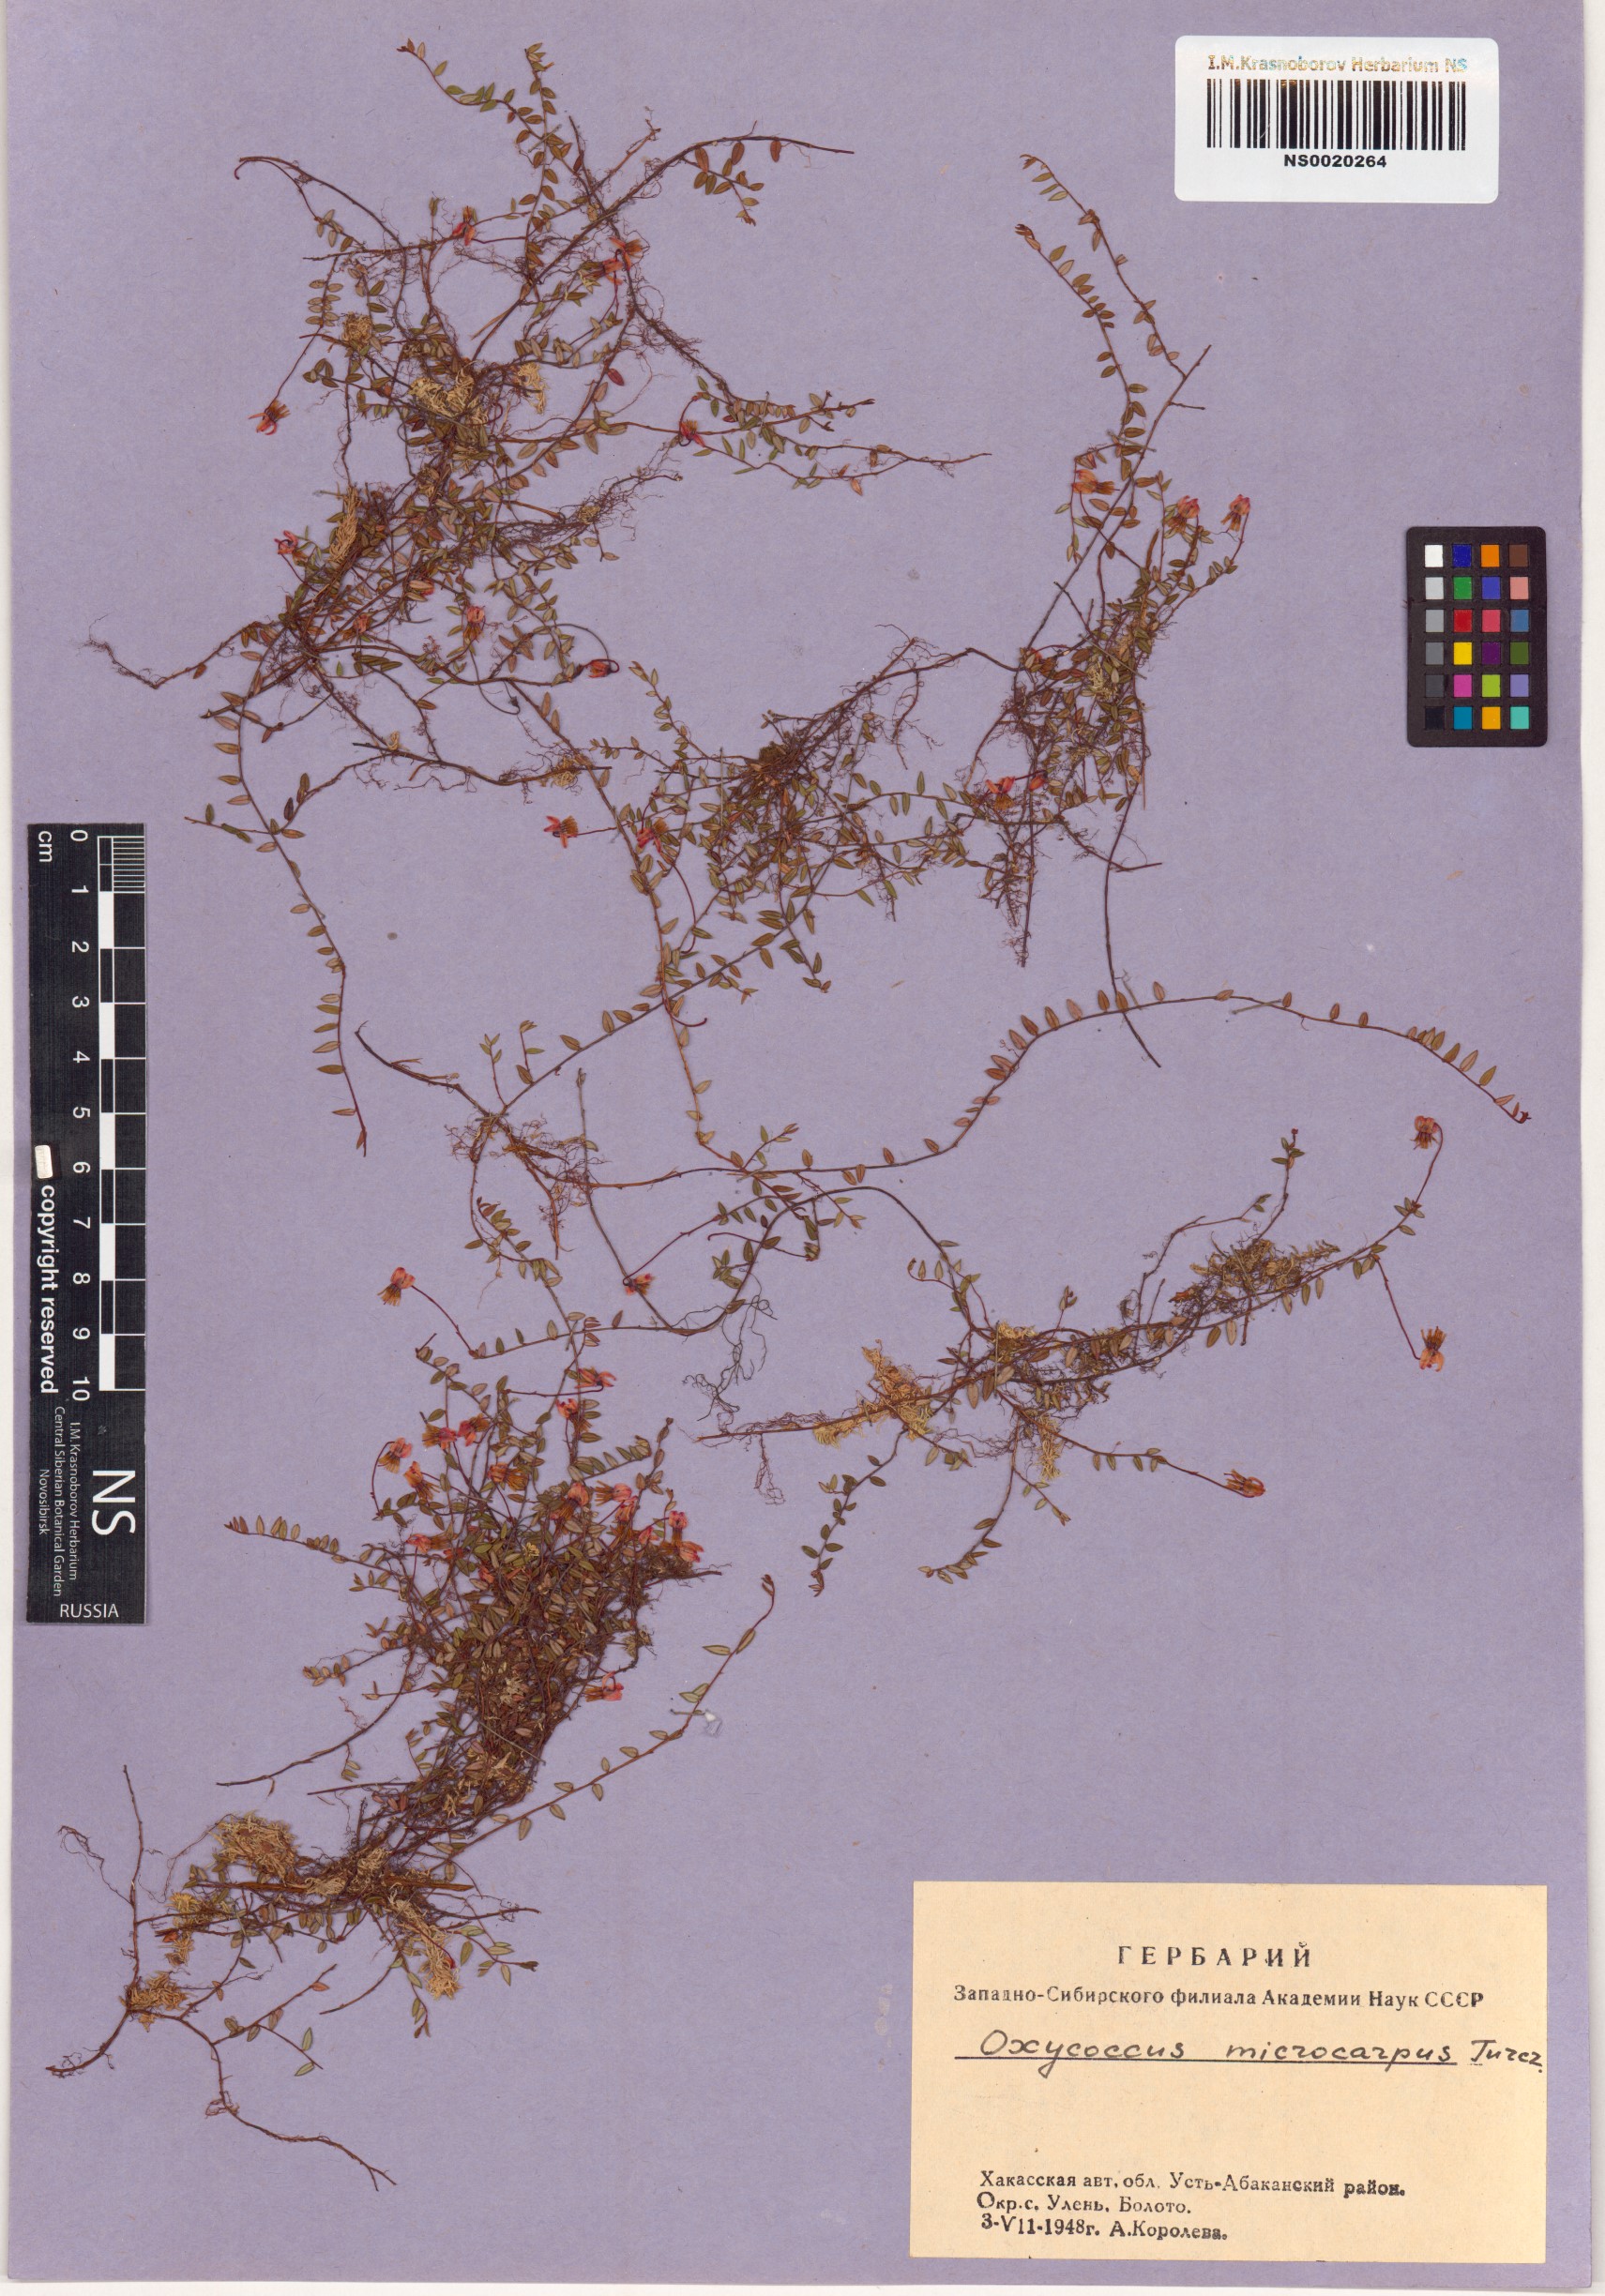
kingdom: Plantae
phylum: Tracheophyta
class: Magnoliopsida
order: Ericales
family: Ericaceae
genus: Vaccinium
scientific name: Vaccinium microcarpum
